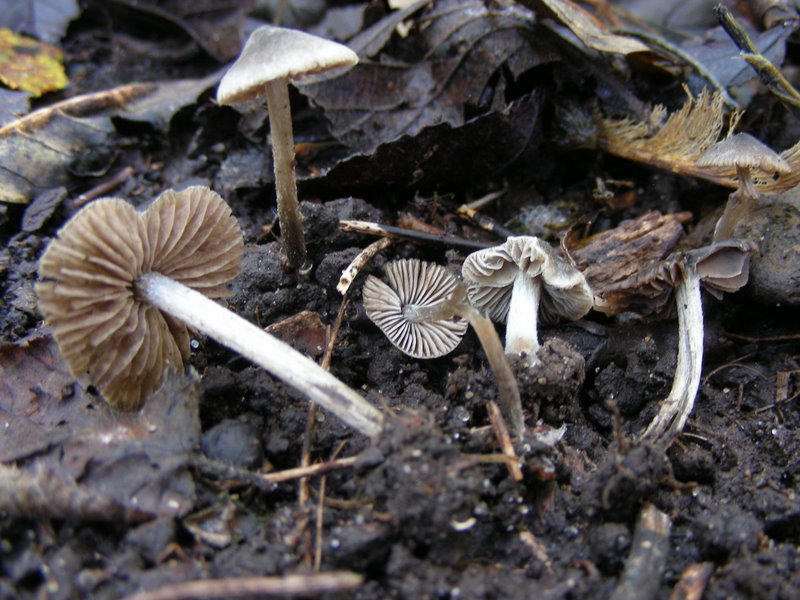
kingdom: Fungi
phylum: Basidiomycota
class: Agaricomycetes
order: Agaricales
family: Entolomataceae
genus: Entoloma
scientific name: Entoloma araneosum
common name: spindelvævs-rødblad
